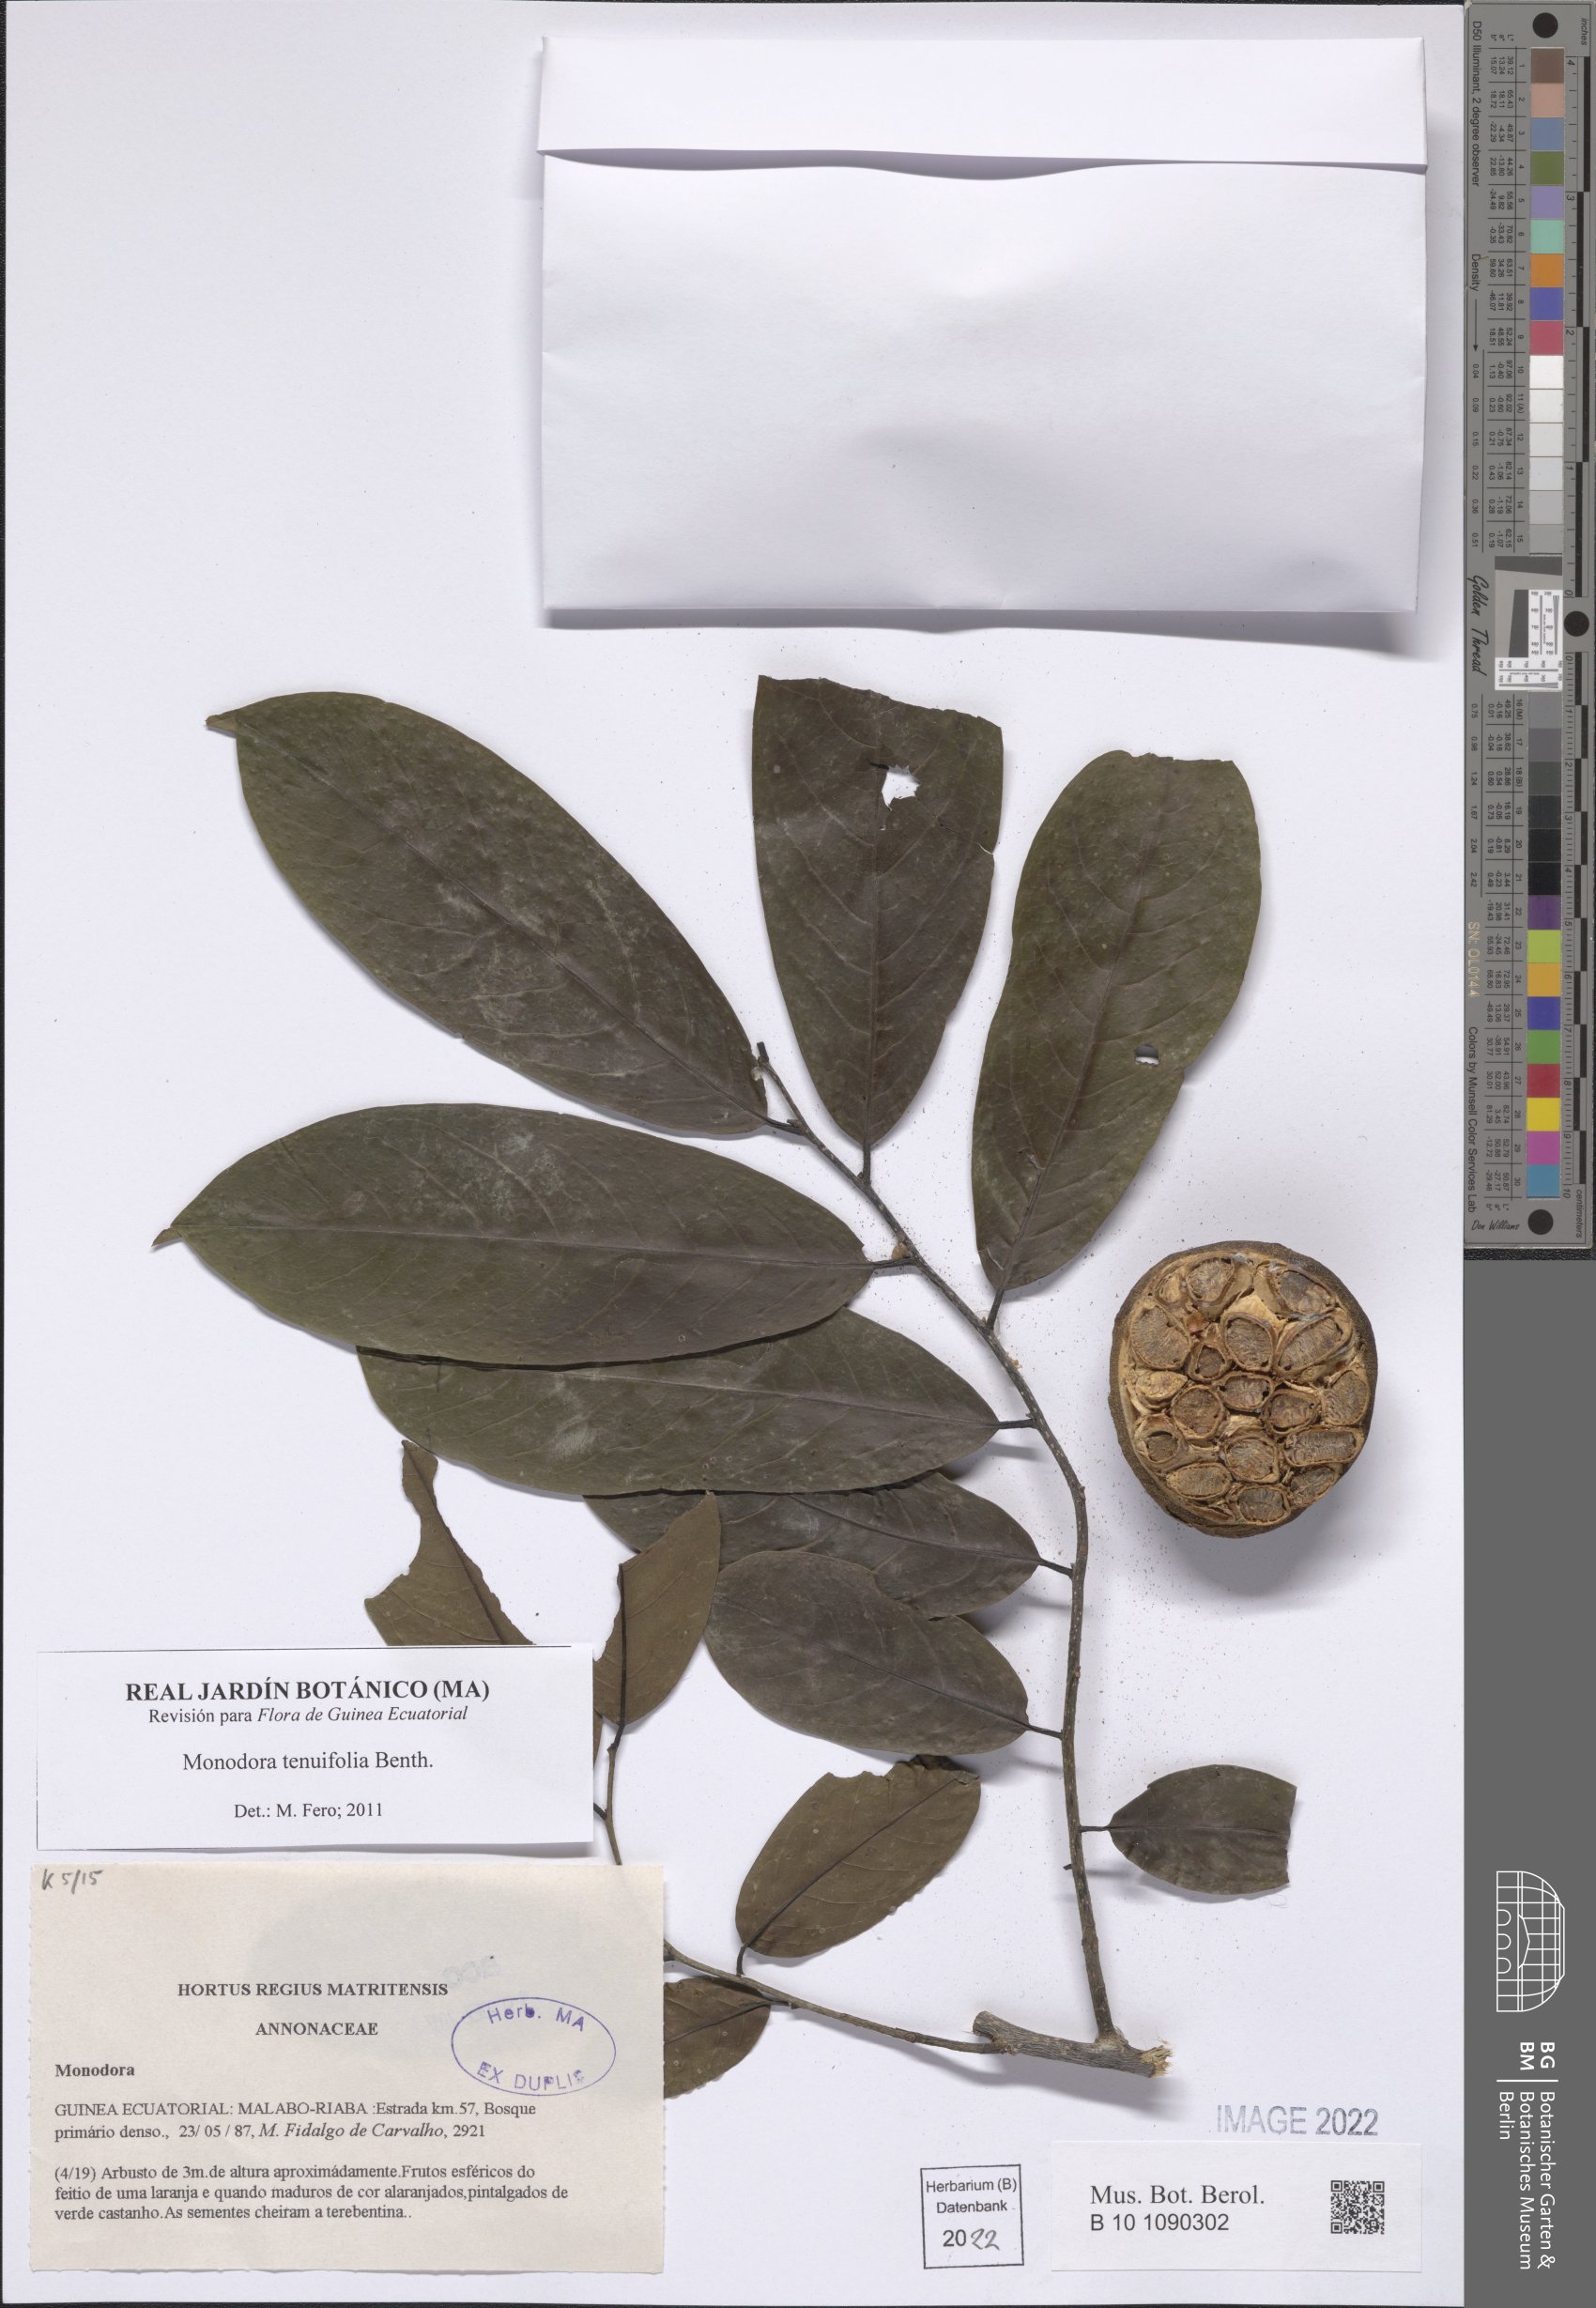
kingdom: Plantae
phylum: Tracheophyta
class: Magnoliopsida
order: Magnoliales
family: Annonaceae
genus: Monodora
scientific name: Monodora tenuifolia
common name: Orchidtree
